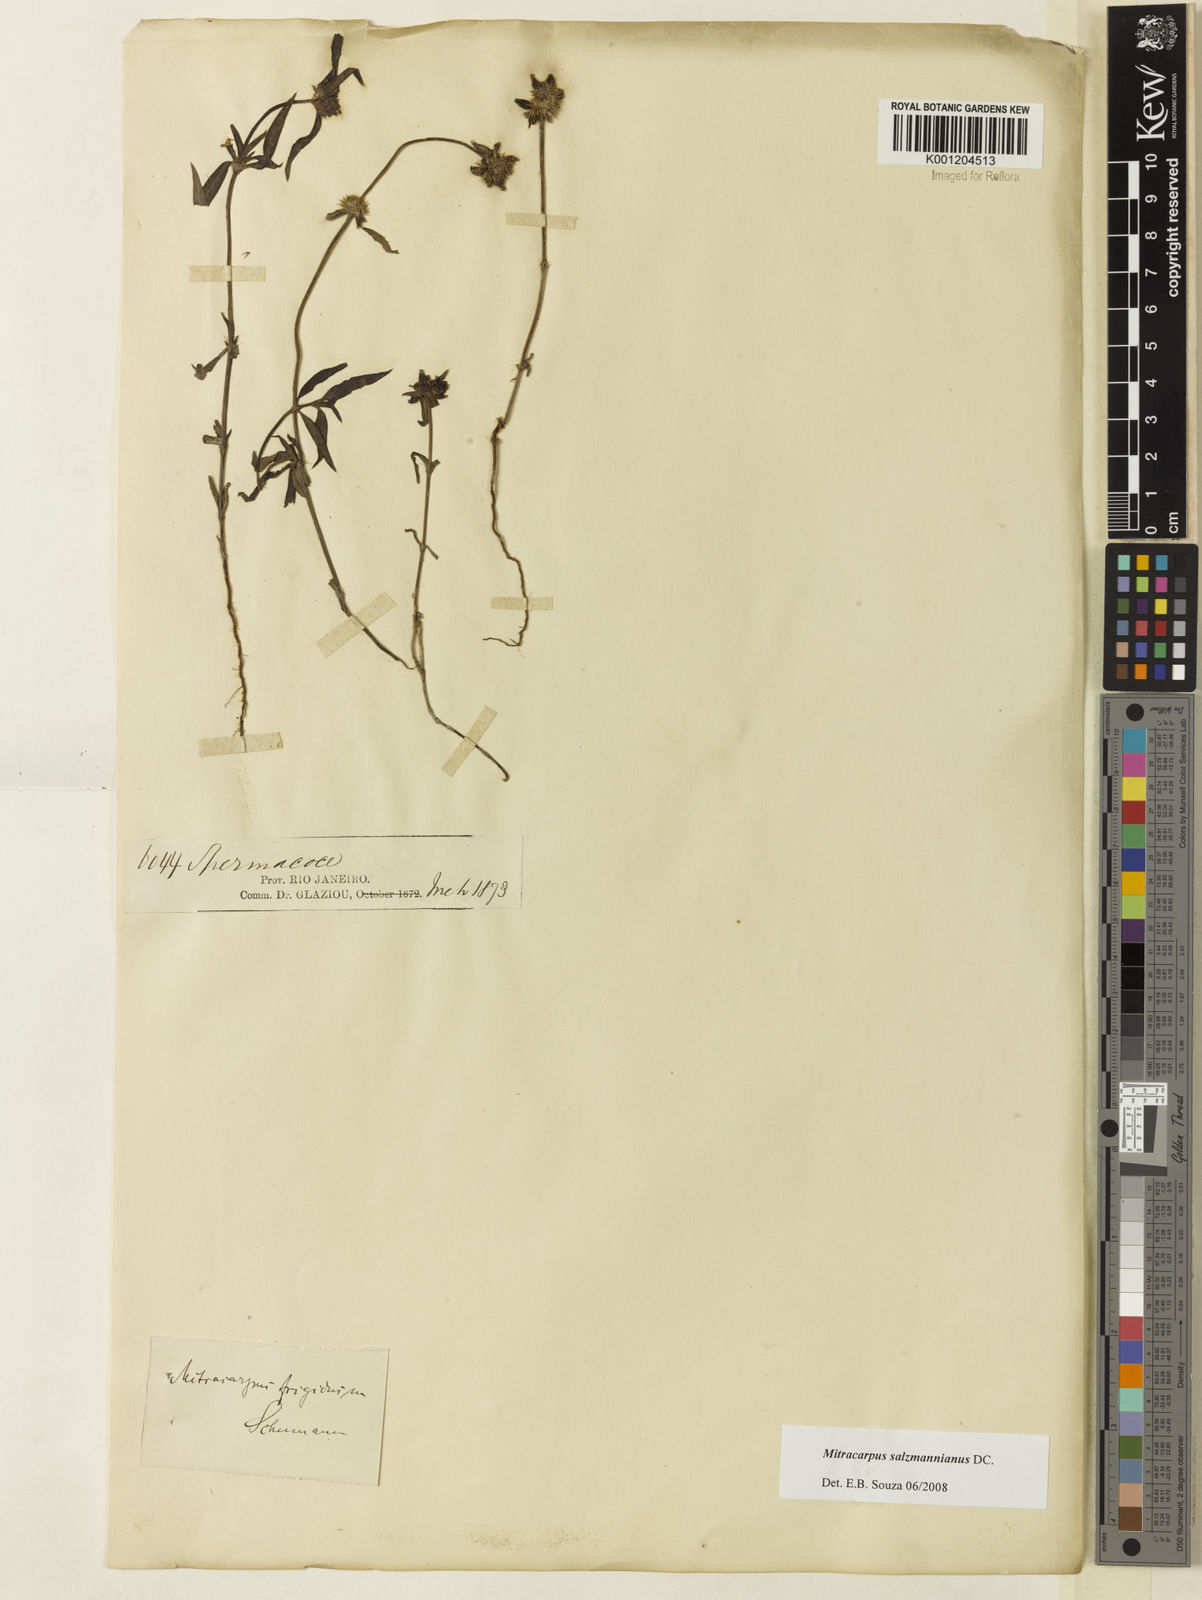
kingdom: Plantae
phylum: Tracheophyta
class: Magnoliopsida
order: Gentianales
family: Rubiaceae
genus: Mitracarpus
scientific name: Mitracarpus salzmannianus
